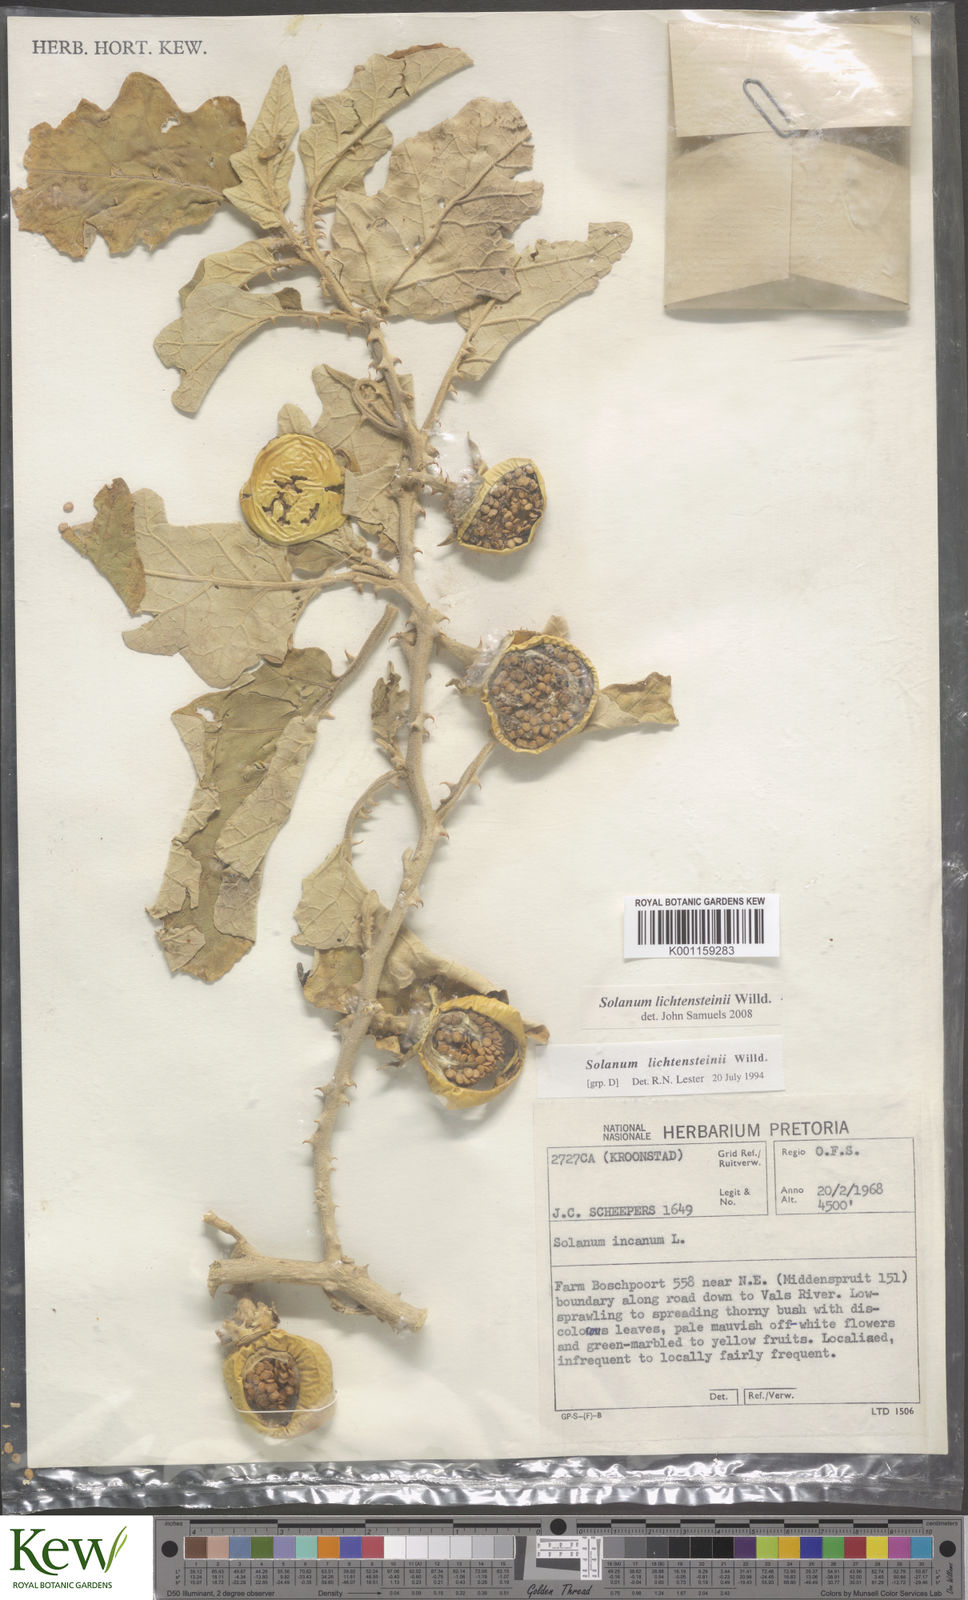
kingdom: Plantae
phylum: Tracheophyta
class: Magnoliopsida
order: Solanales
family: Solanaceae
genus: Solanum
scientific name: Solanum lichtensteinii
